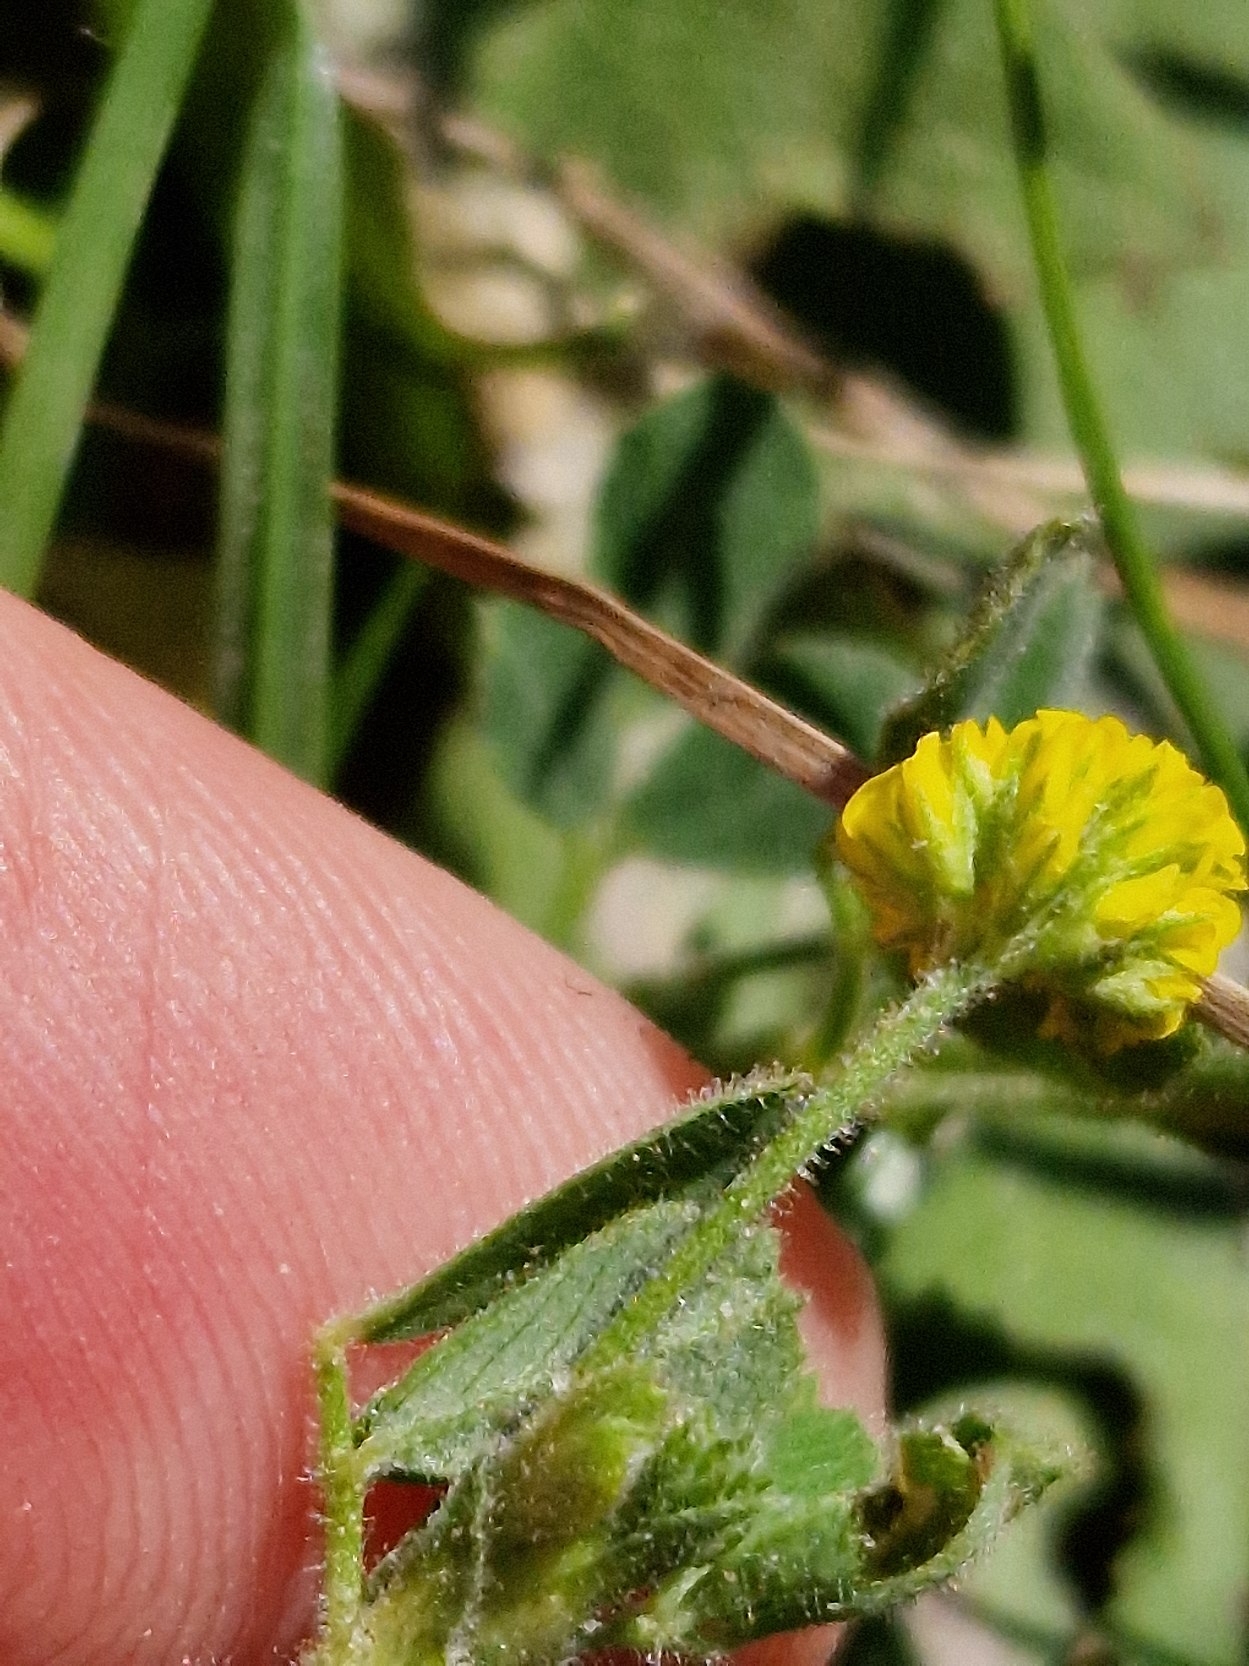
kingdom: Plantae
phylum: Tracheophyta
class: Magnoliopsida
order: Fabales
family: Fabaceae
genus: Medicago
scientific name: Medicago lupulina
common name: Humle-sneglebælg
